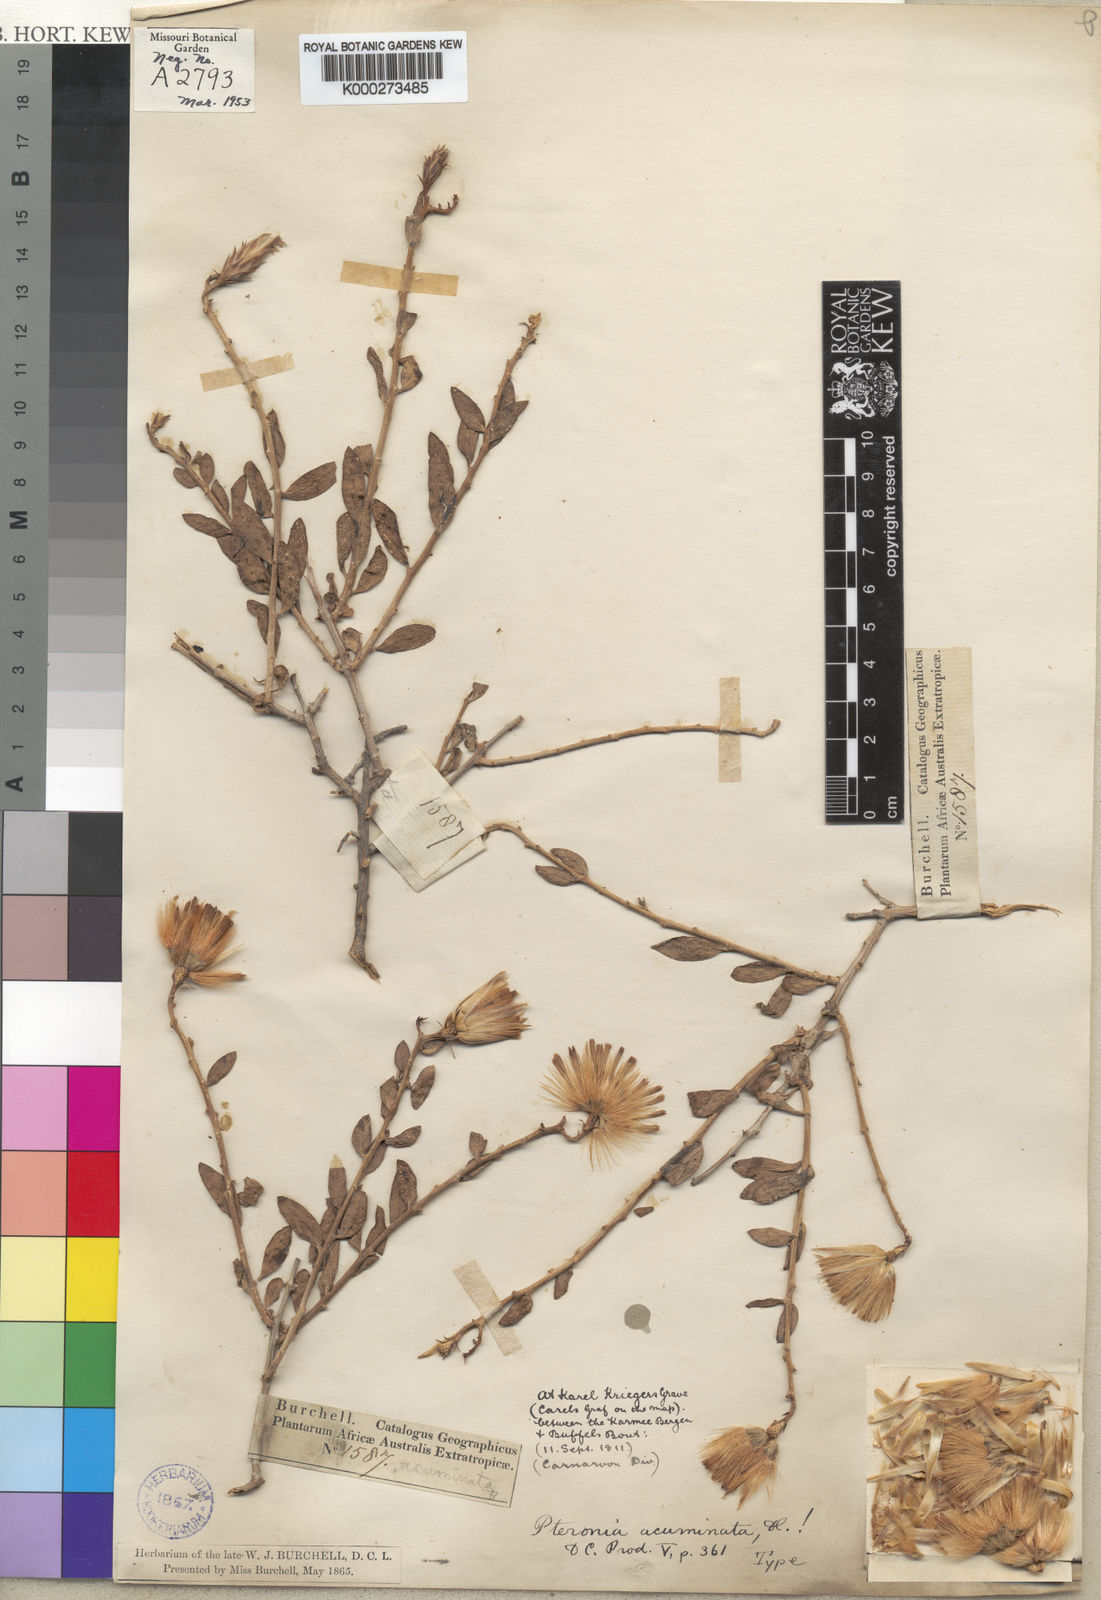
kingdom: Plantae
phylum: Tracheophyta
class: Magnoliopsida
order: Asterales
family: Asteraceae
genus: Pteronia
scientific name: Pteronia acuminata
